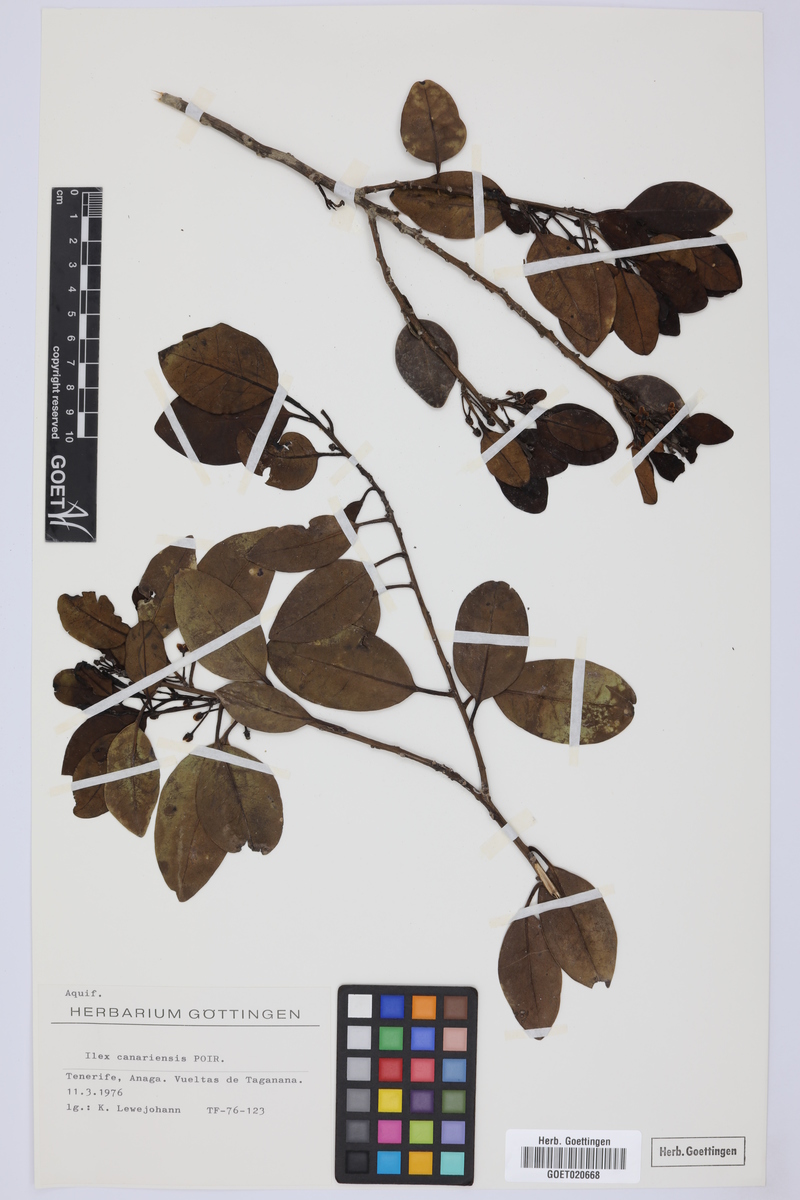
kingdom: Plantae
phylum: Tracheophyta
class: Magnoliopsida
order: Aquifoliales
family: Aquifoliaceae
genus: Ilex
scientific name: Ilex canariensis
